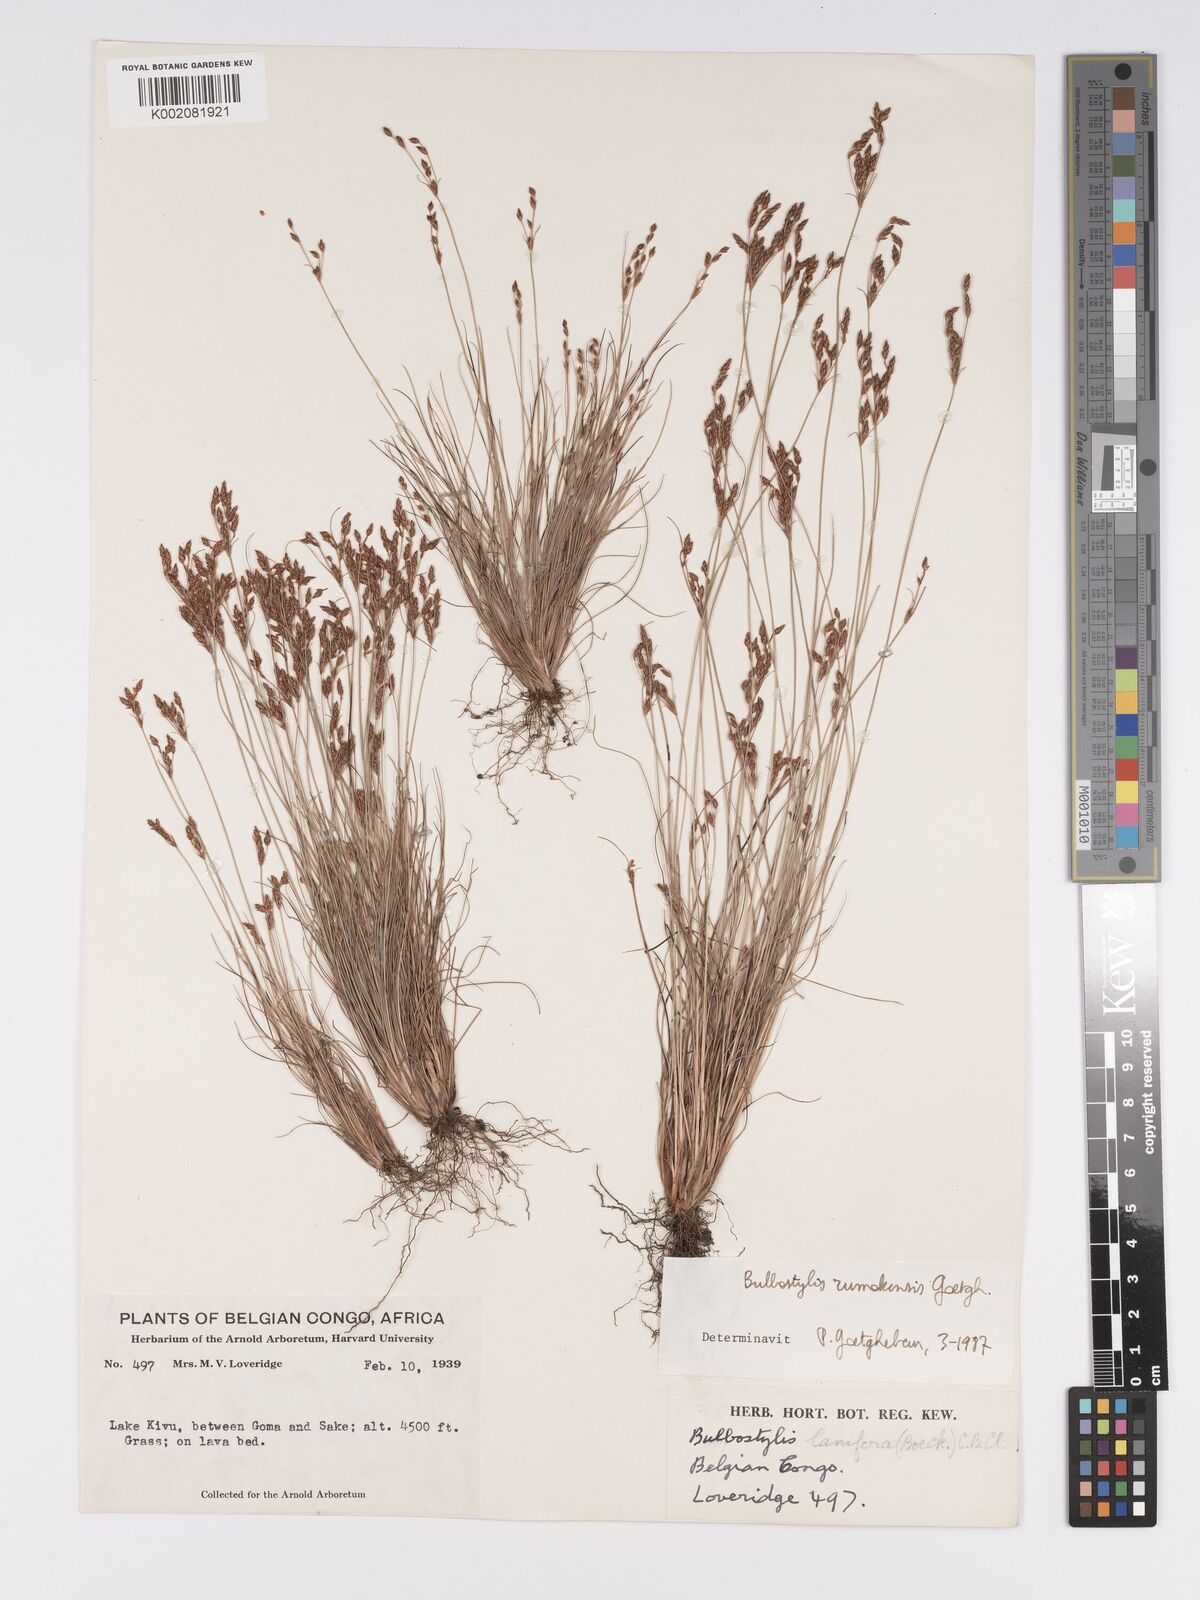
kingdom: Plantae
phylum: Tracheophyta
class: Liliopsida
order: Poales
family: Cyperaceae
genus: Bulbostylis
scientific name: Bulbostylis rumokensis
